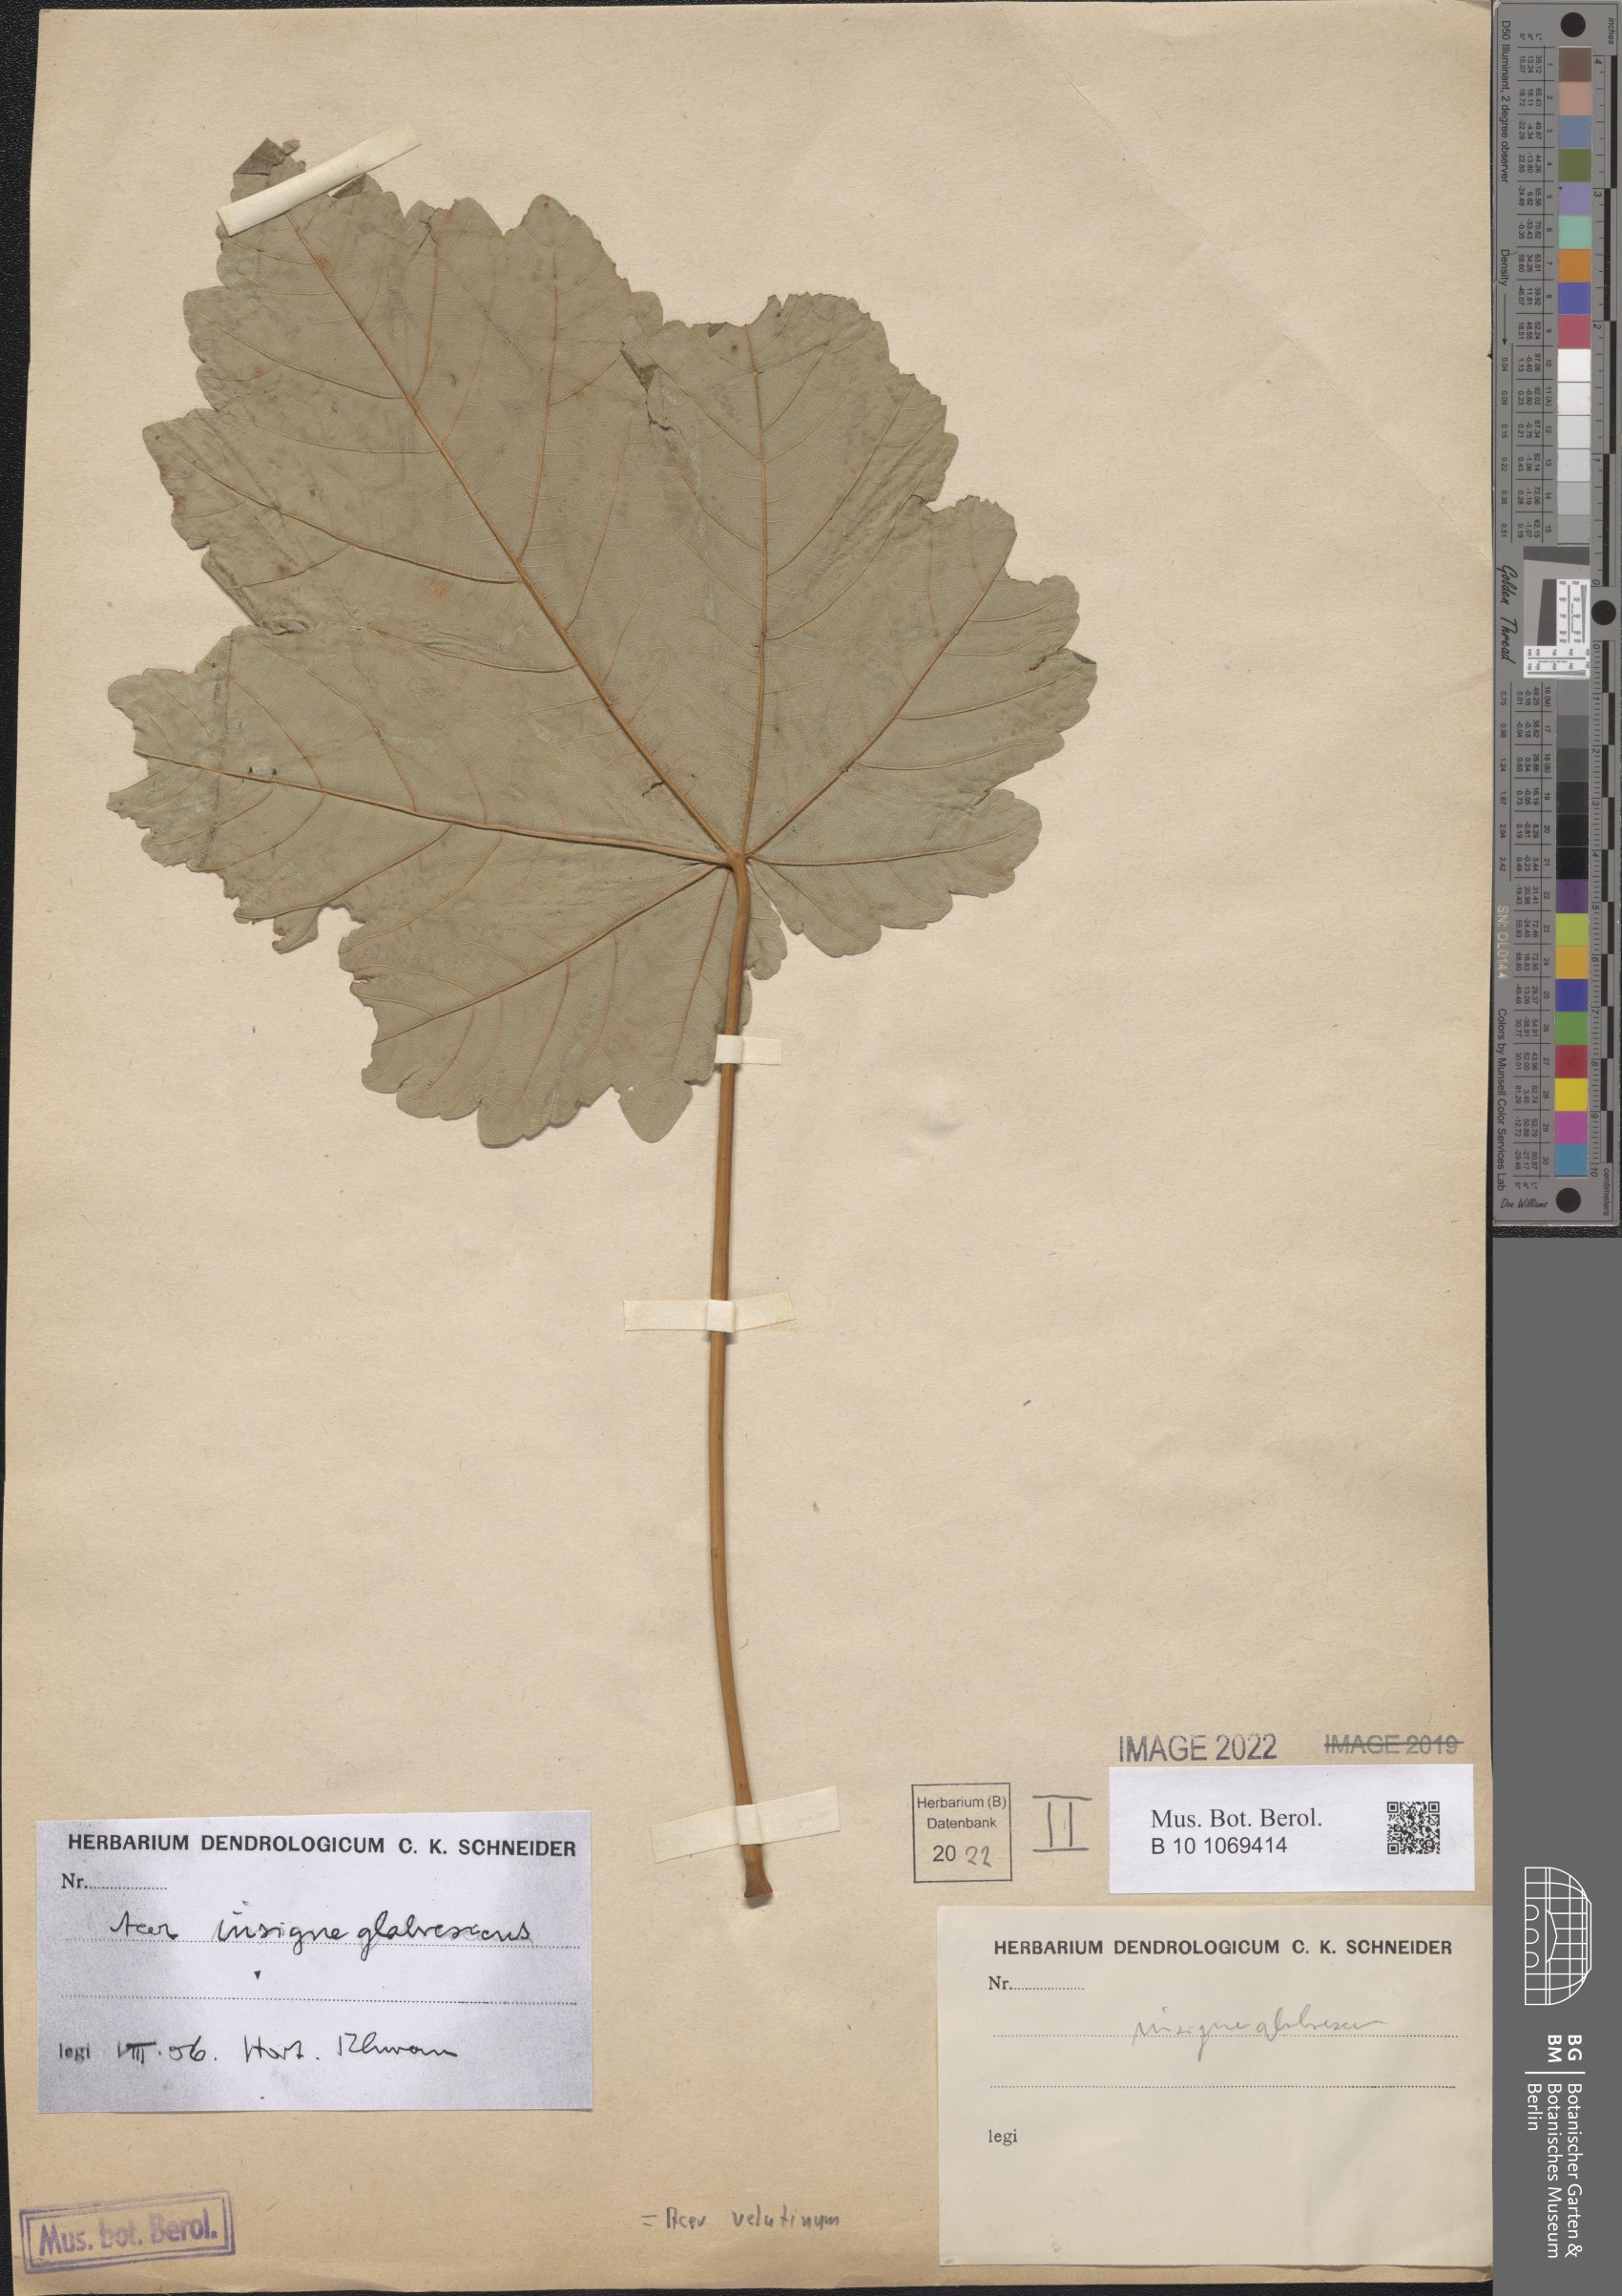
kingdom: Plantae
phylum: Tracheophyta
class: Magnoliopsida
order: Sapindales
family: Sapindaceae
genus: Acer
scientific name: Acer velutinum
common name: Velvet maple
